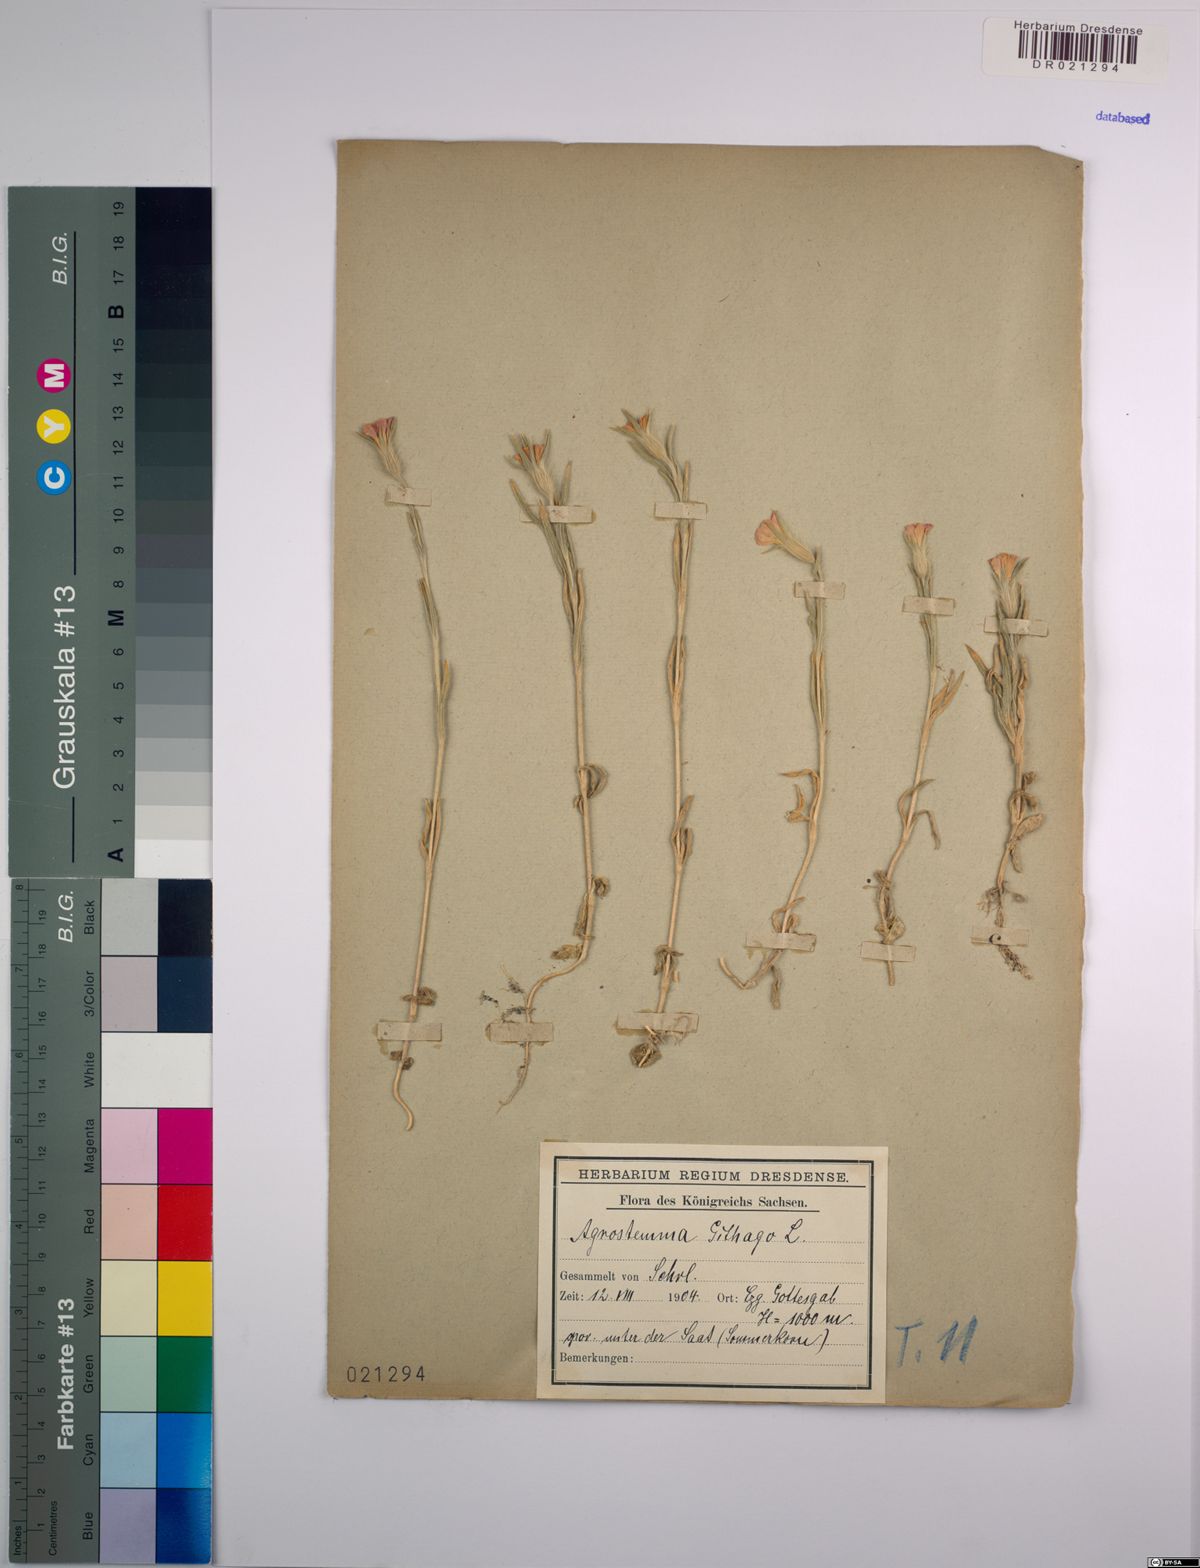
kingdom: Plantae
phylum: Tracheophyta
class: Magnoliopsida
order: Caryophyllales
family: Caryophyllaceae
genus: Agrostemma
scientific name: Agrostemma githago
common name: Common corncockle
